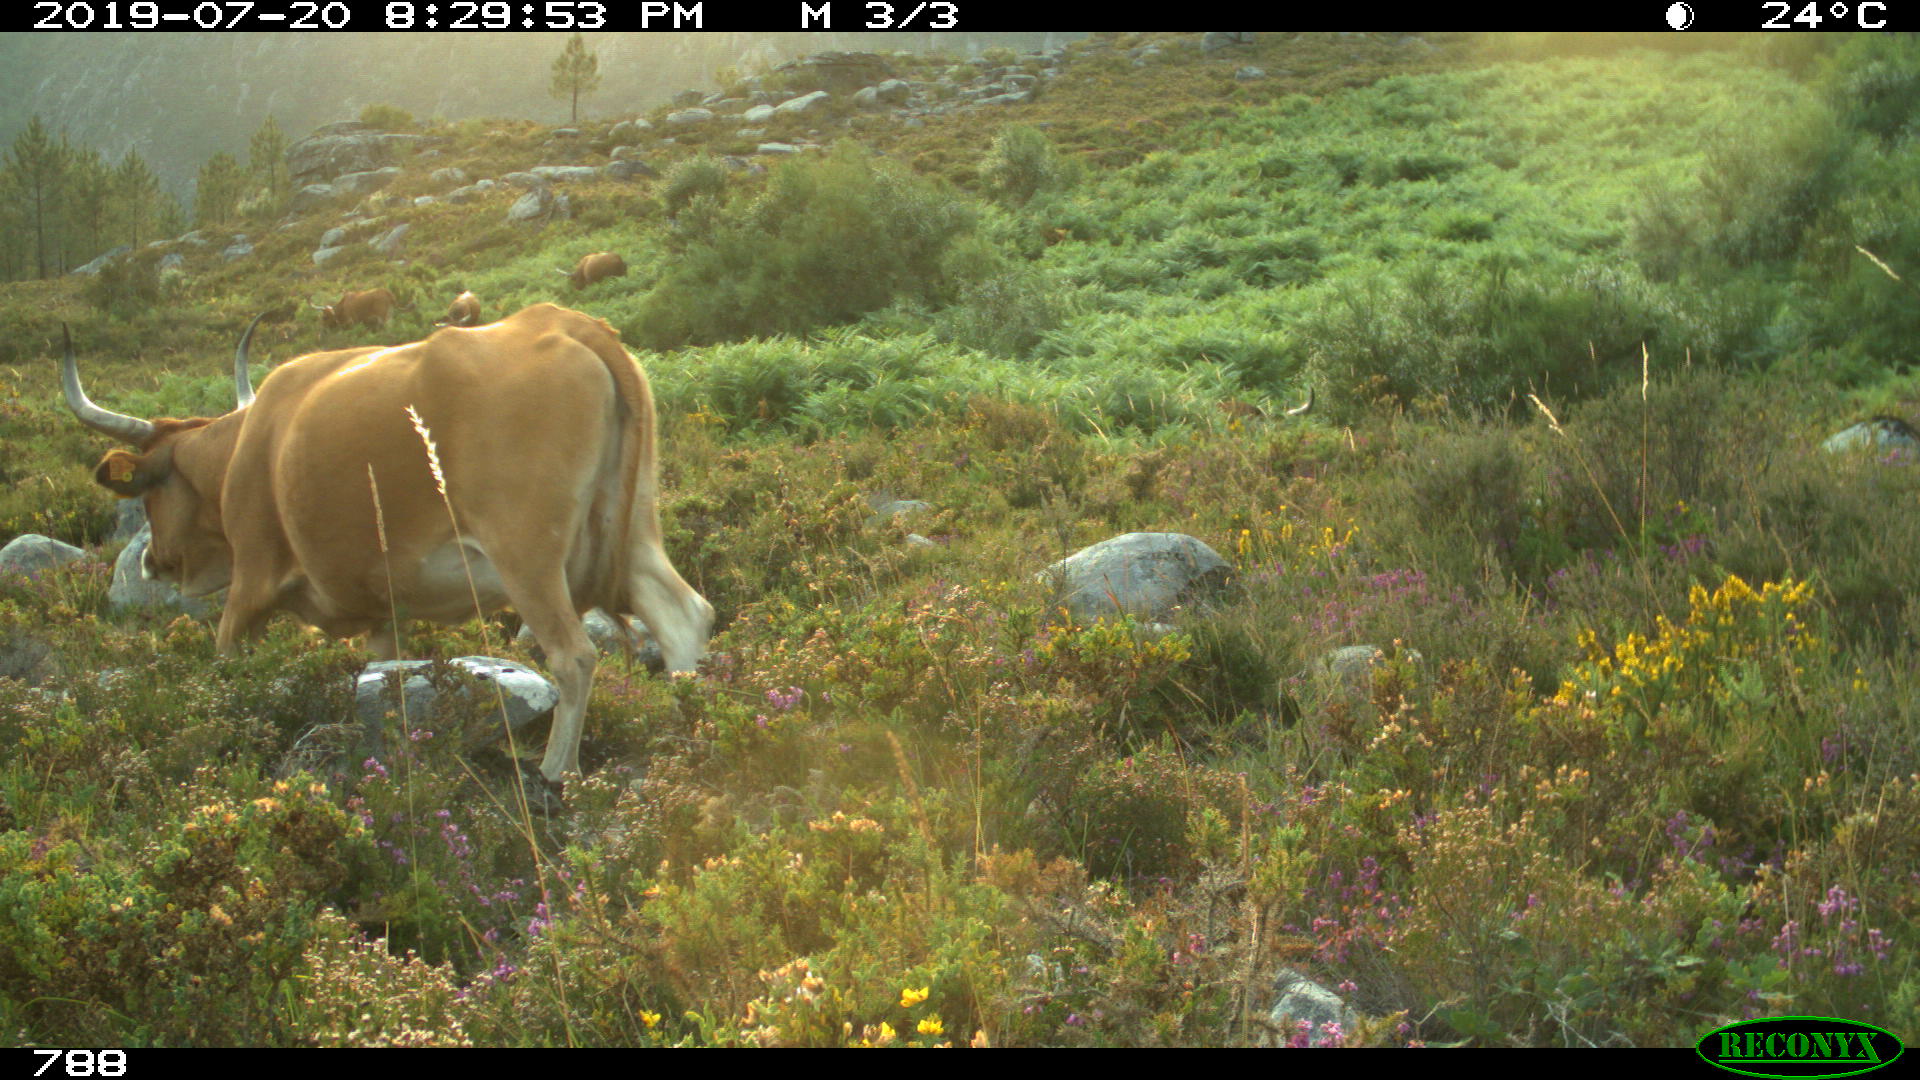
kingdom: Animalia
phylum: Chordata
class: Mammalia
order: Artiodactyla
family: Bovidae
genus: Bos
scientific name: Bos taurus
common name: Domesticated cattle
